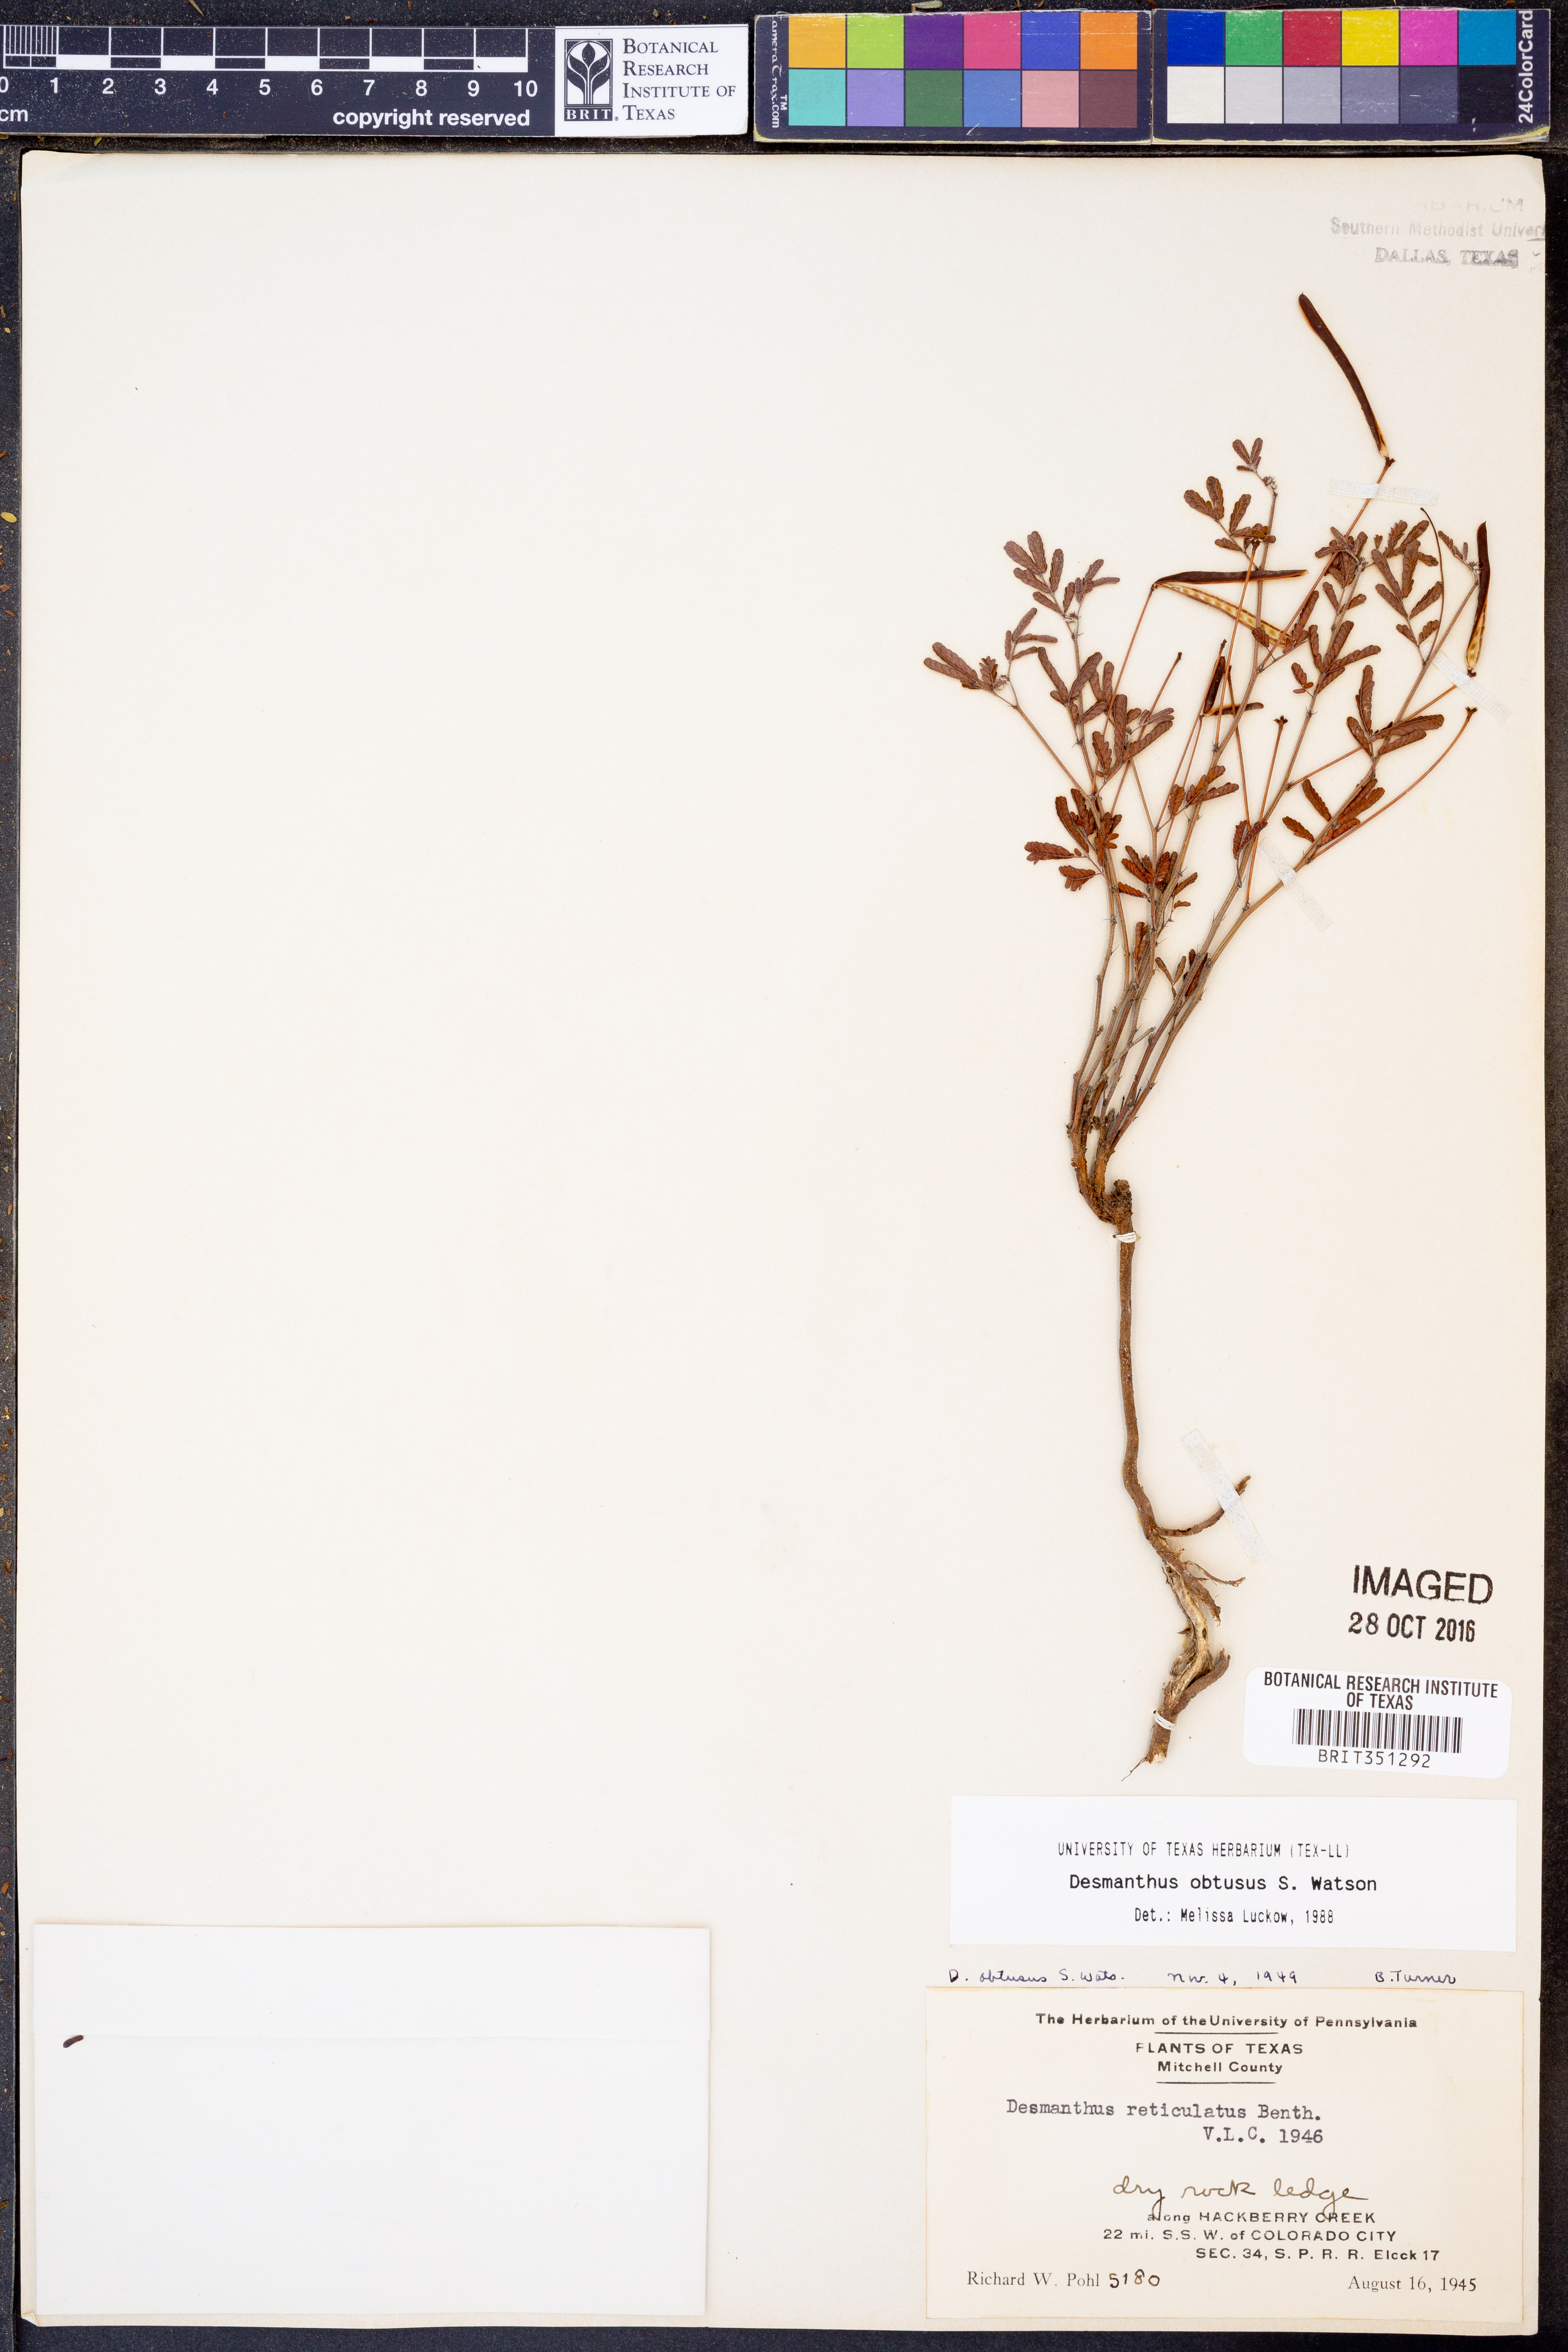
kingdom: Plantae
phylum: Tracheophyta
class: Magnoliopsida
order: Fabales
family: Fabaceae
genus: Desmanthus
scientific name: Desmanthus obtusus
